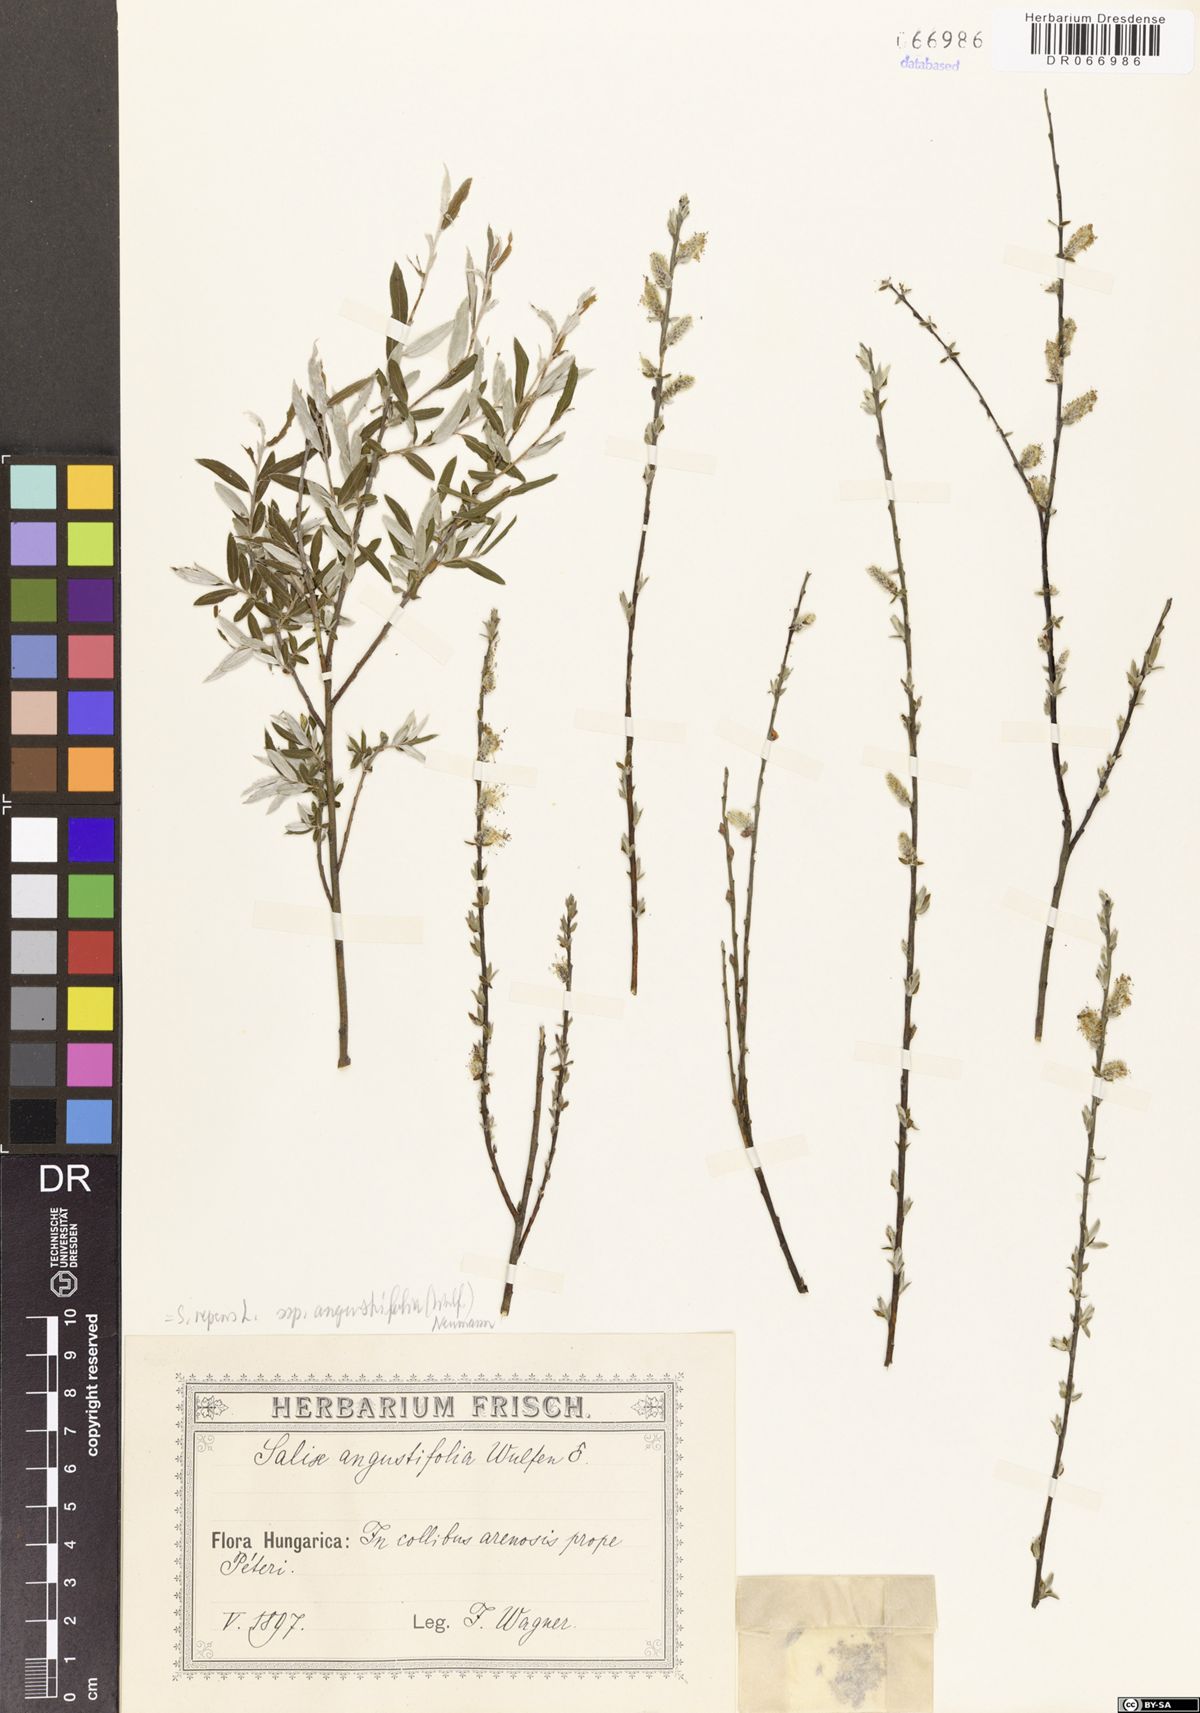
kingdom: Plantae
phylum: Tracheophyta
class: Magnoliopsida
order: Malpighiales
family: Salicaceae
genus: Salix
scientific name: Salix repens
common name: Creeping willow
